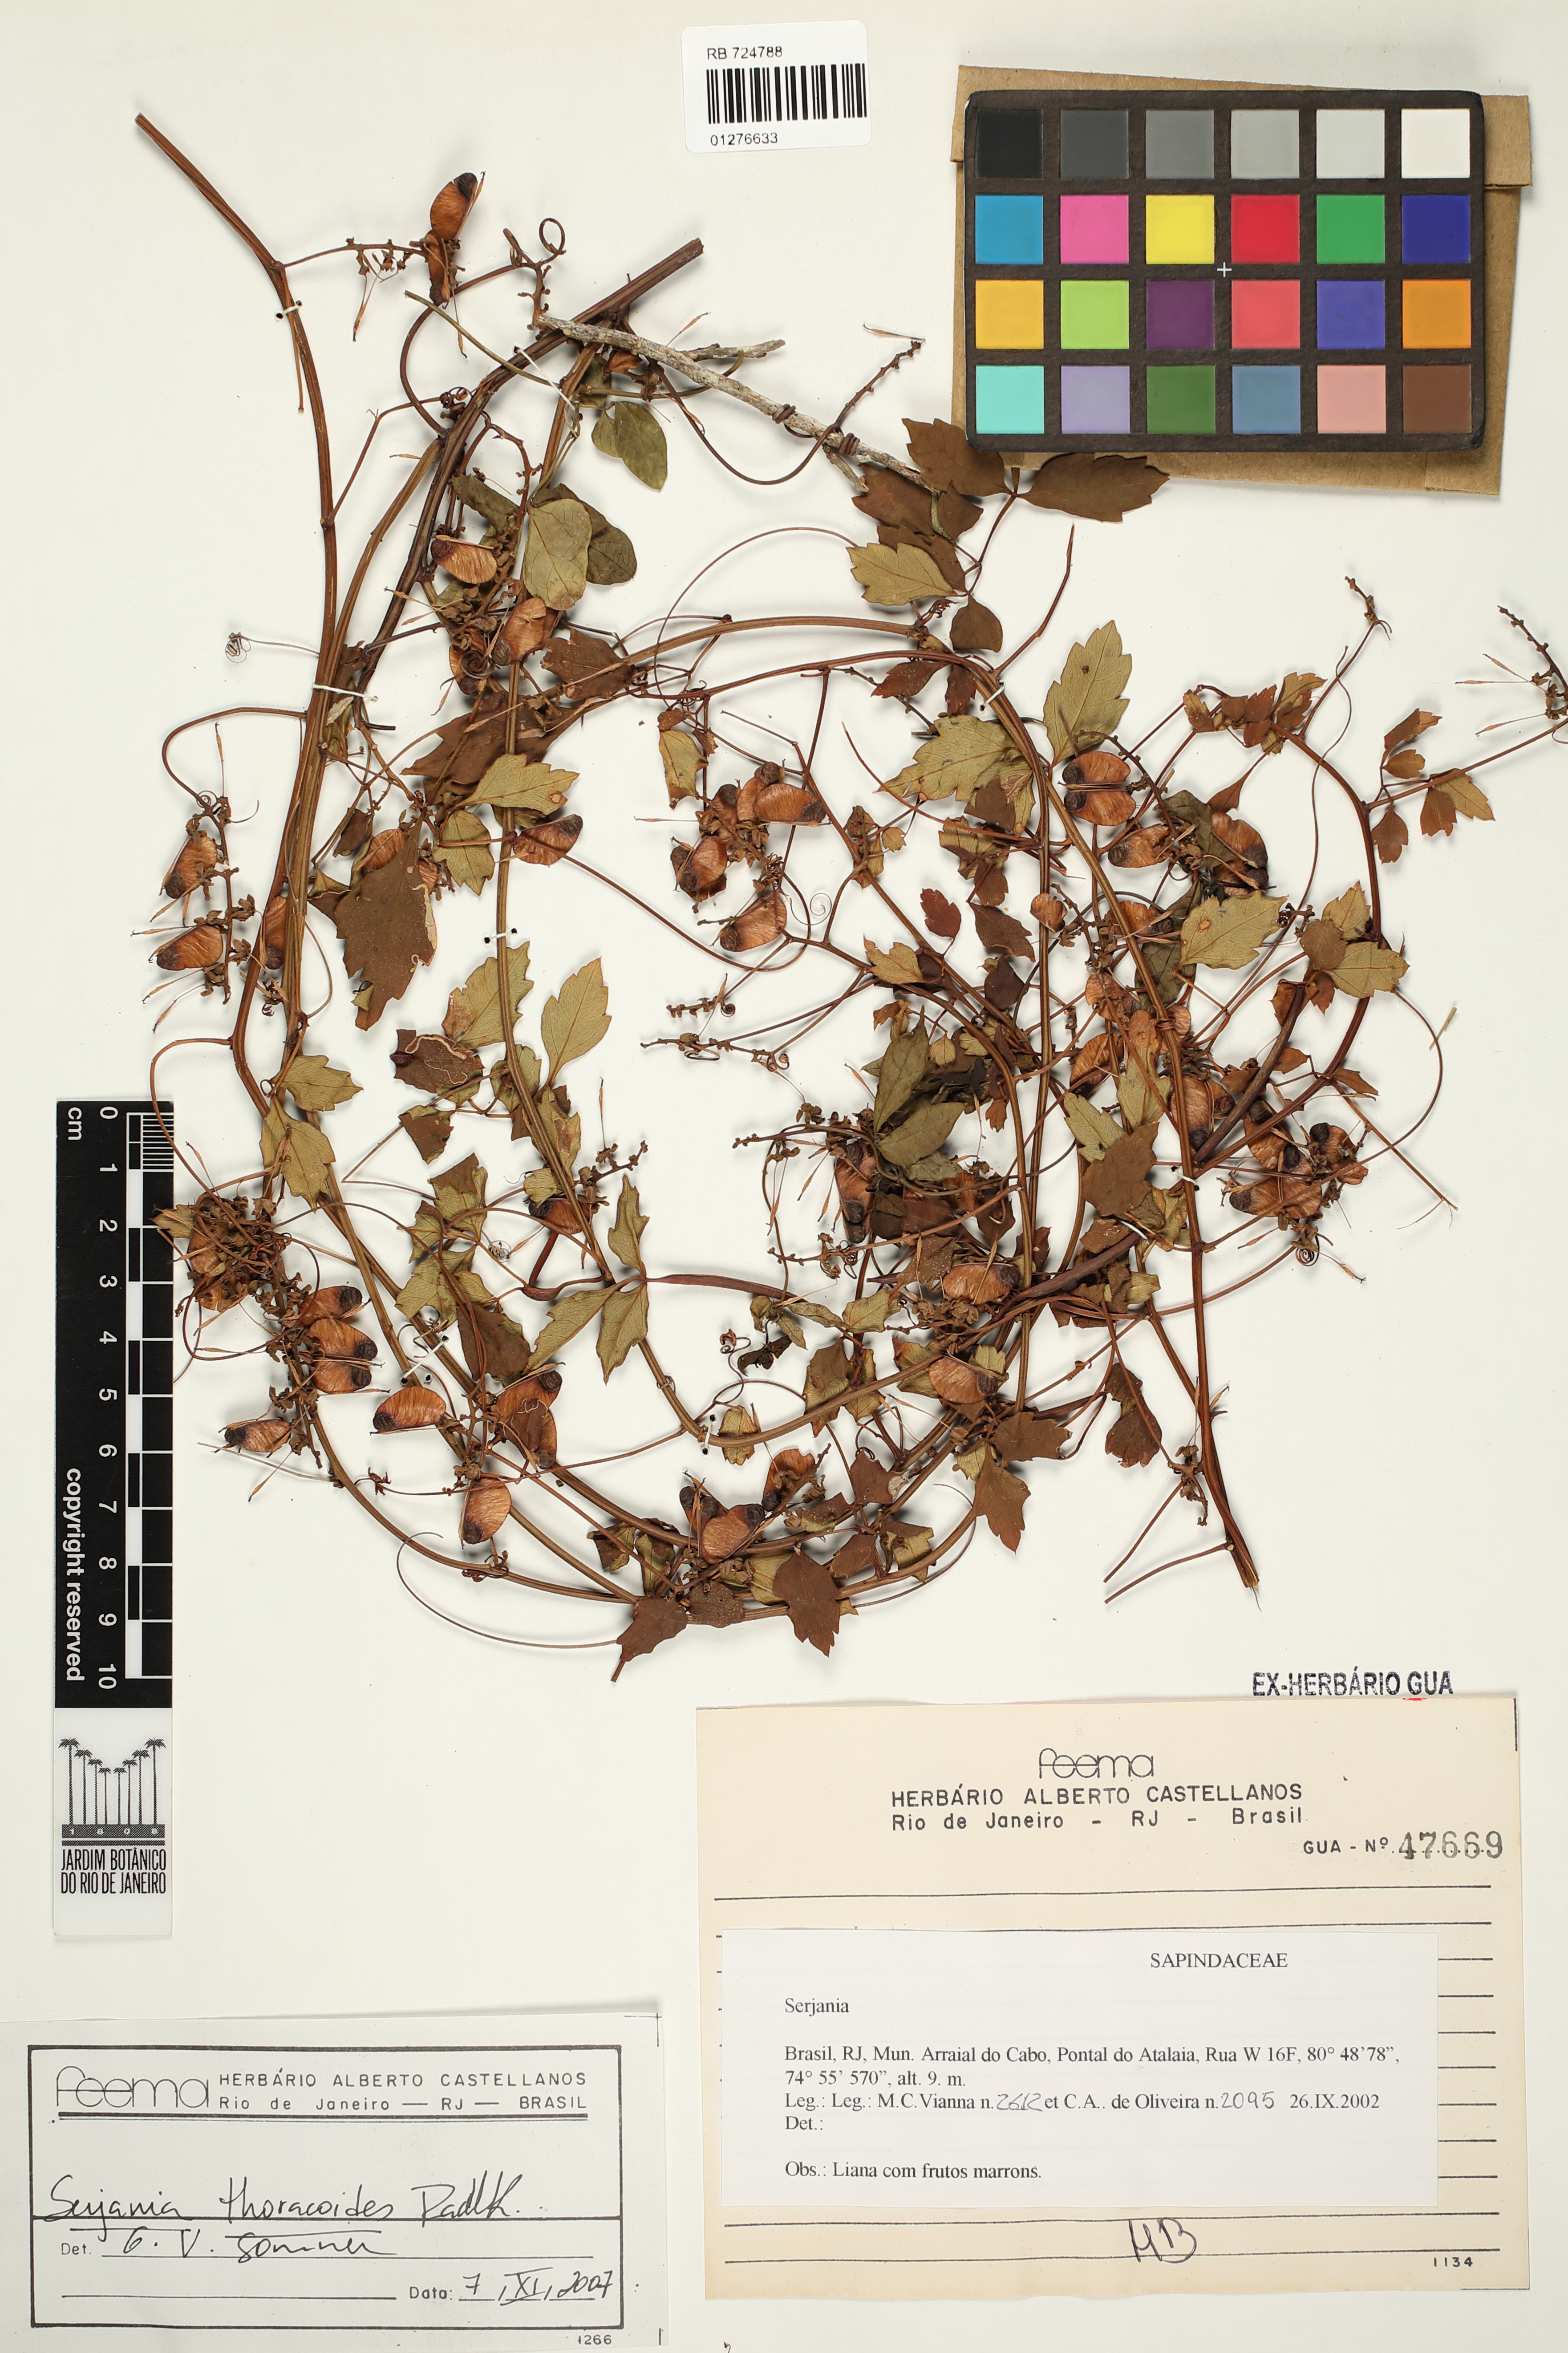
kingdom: Plantae
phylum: Tracheophyta
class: Magnoliopsida
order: Sapindales
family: Sapindaceae
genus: Serjania
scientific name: Serjania thoracoides
